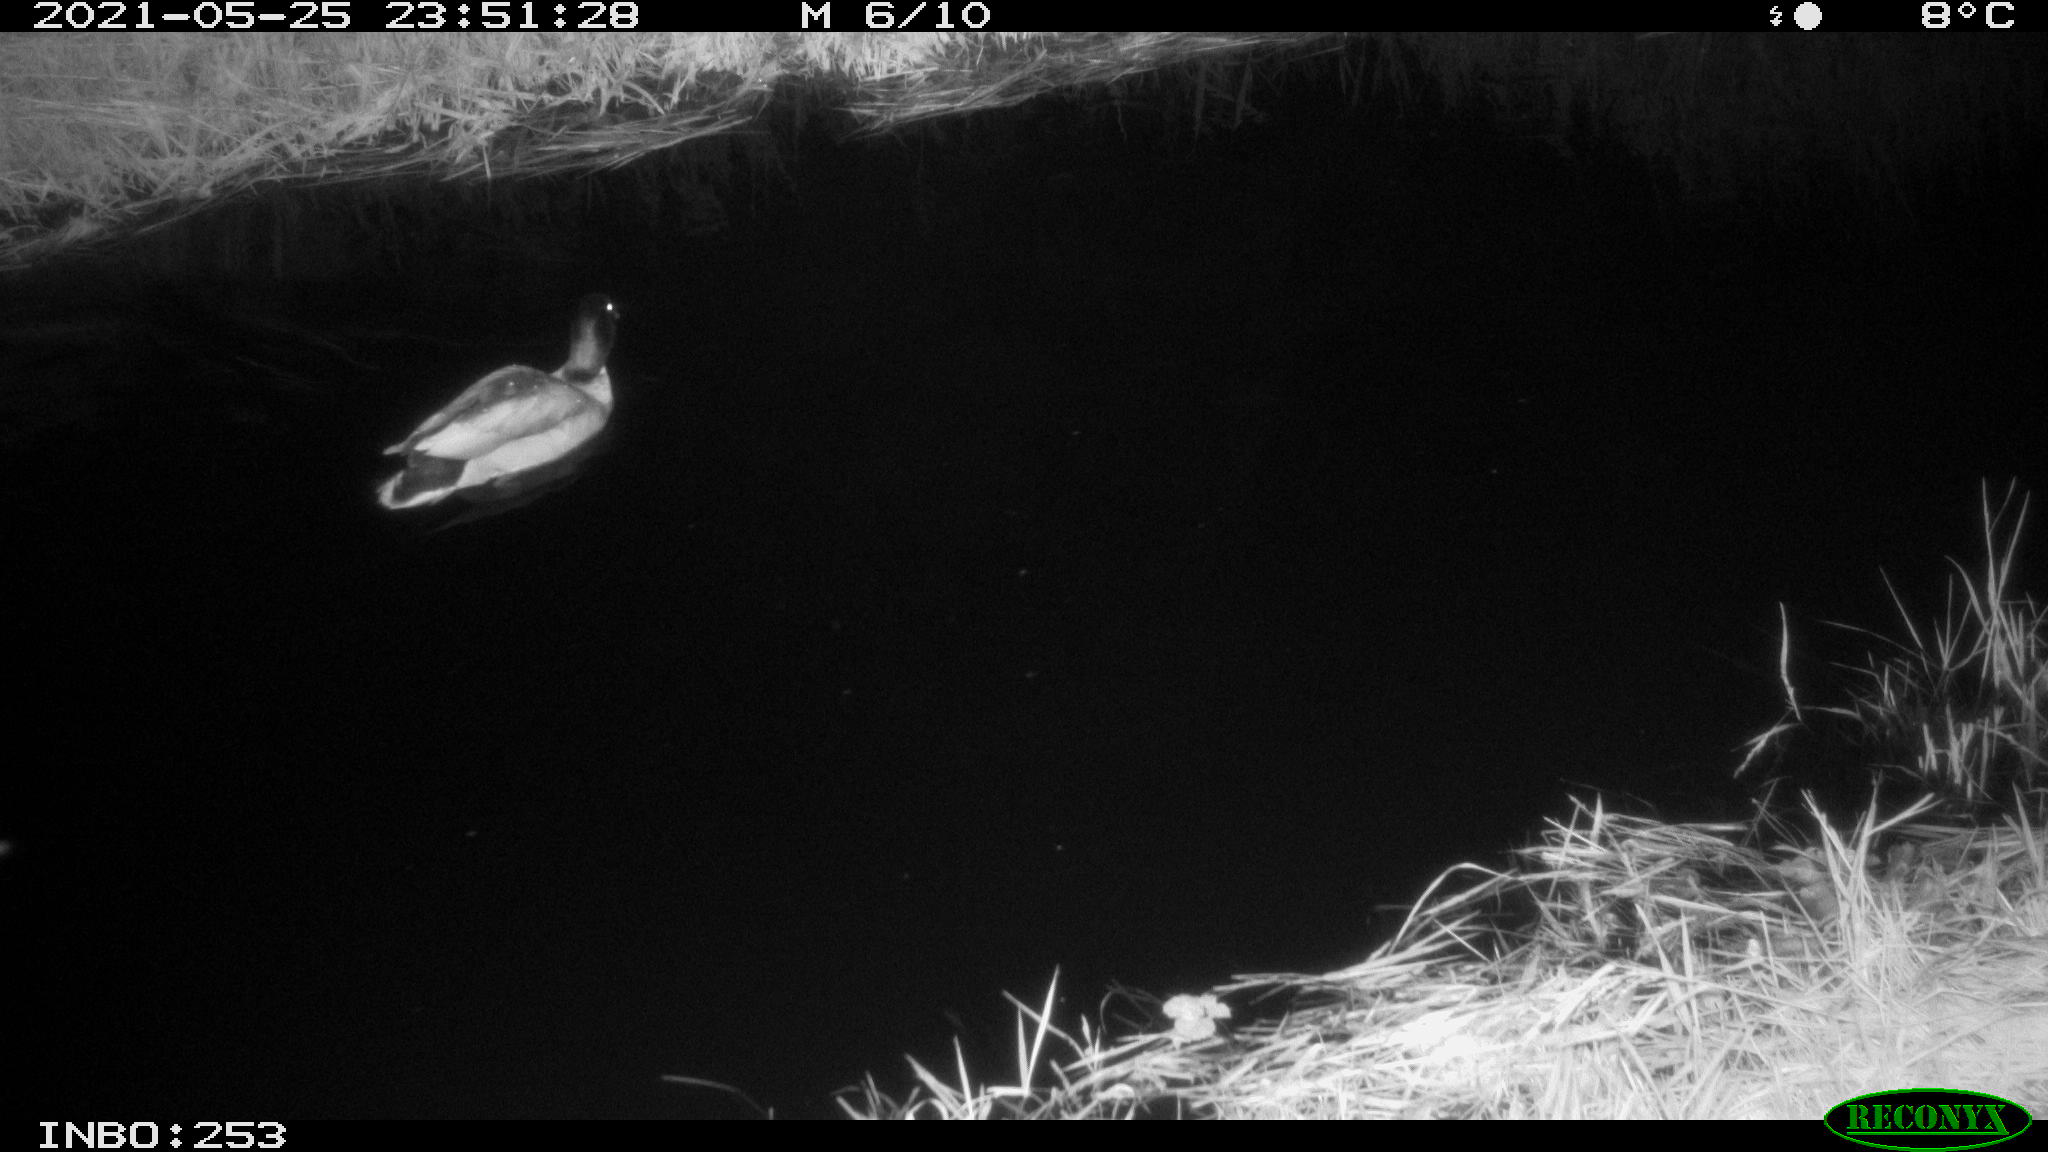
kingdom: Animalia
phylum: Chordata
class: Aves
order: Anseriformes
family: Anatidae
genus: Anas
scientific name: Anas
